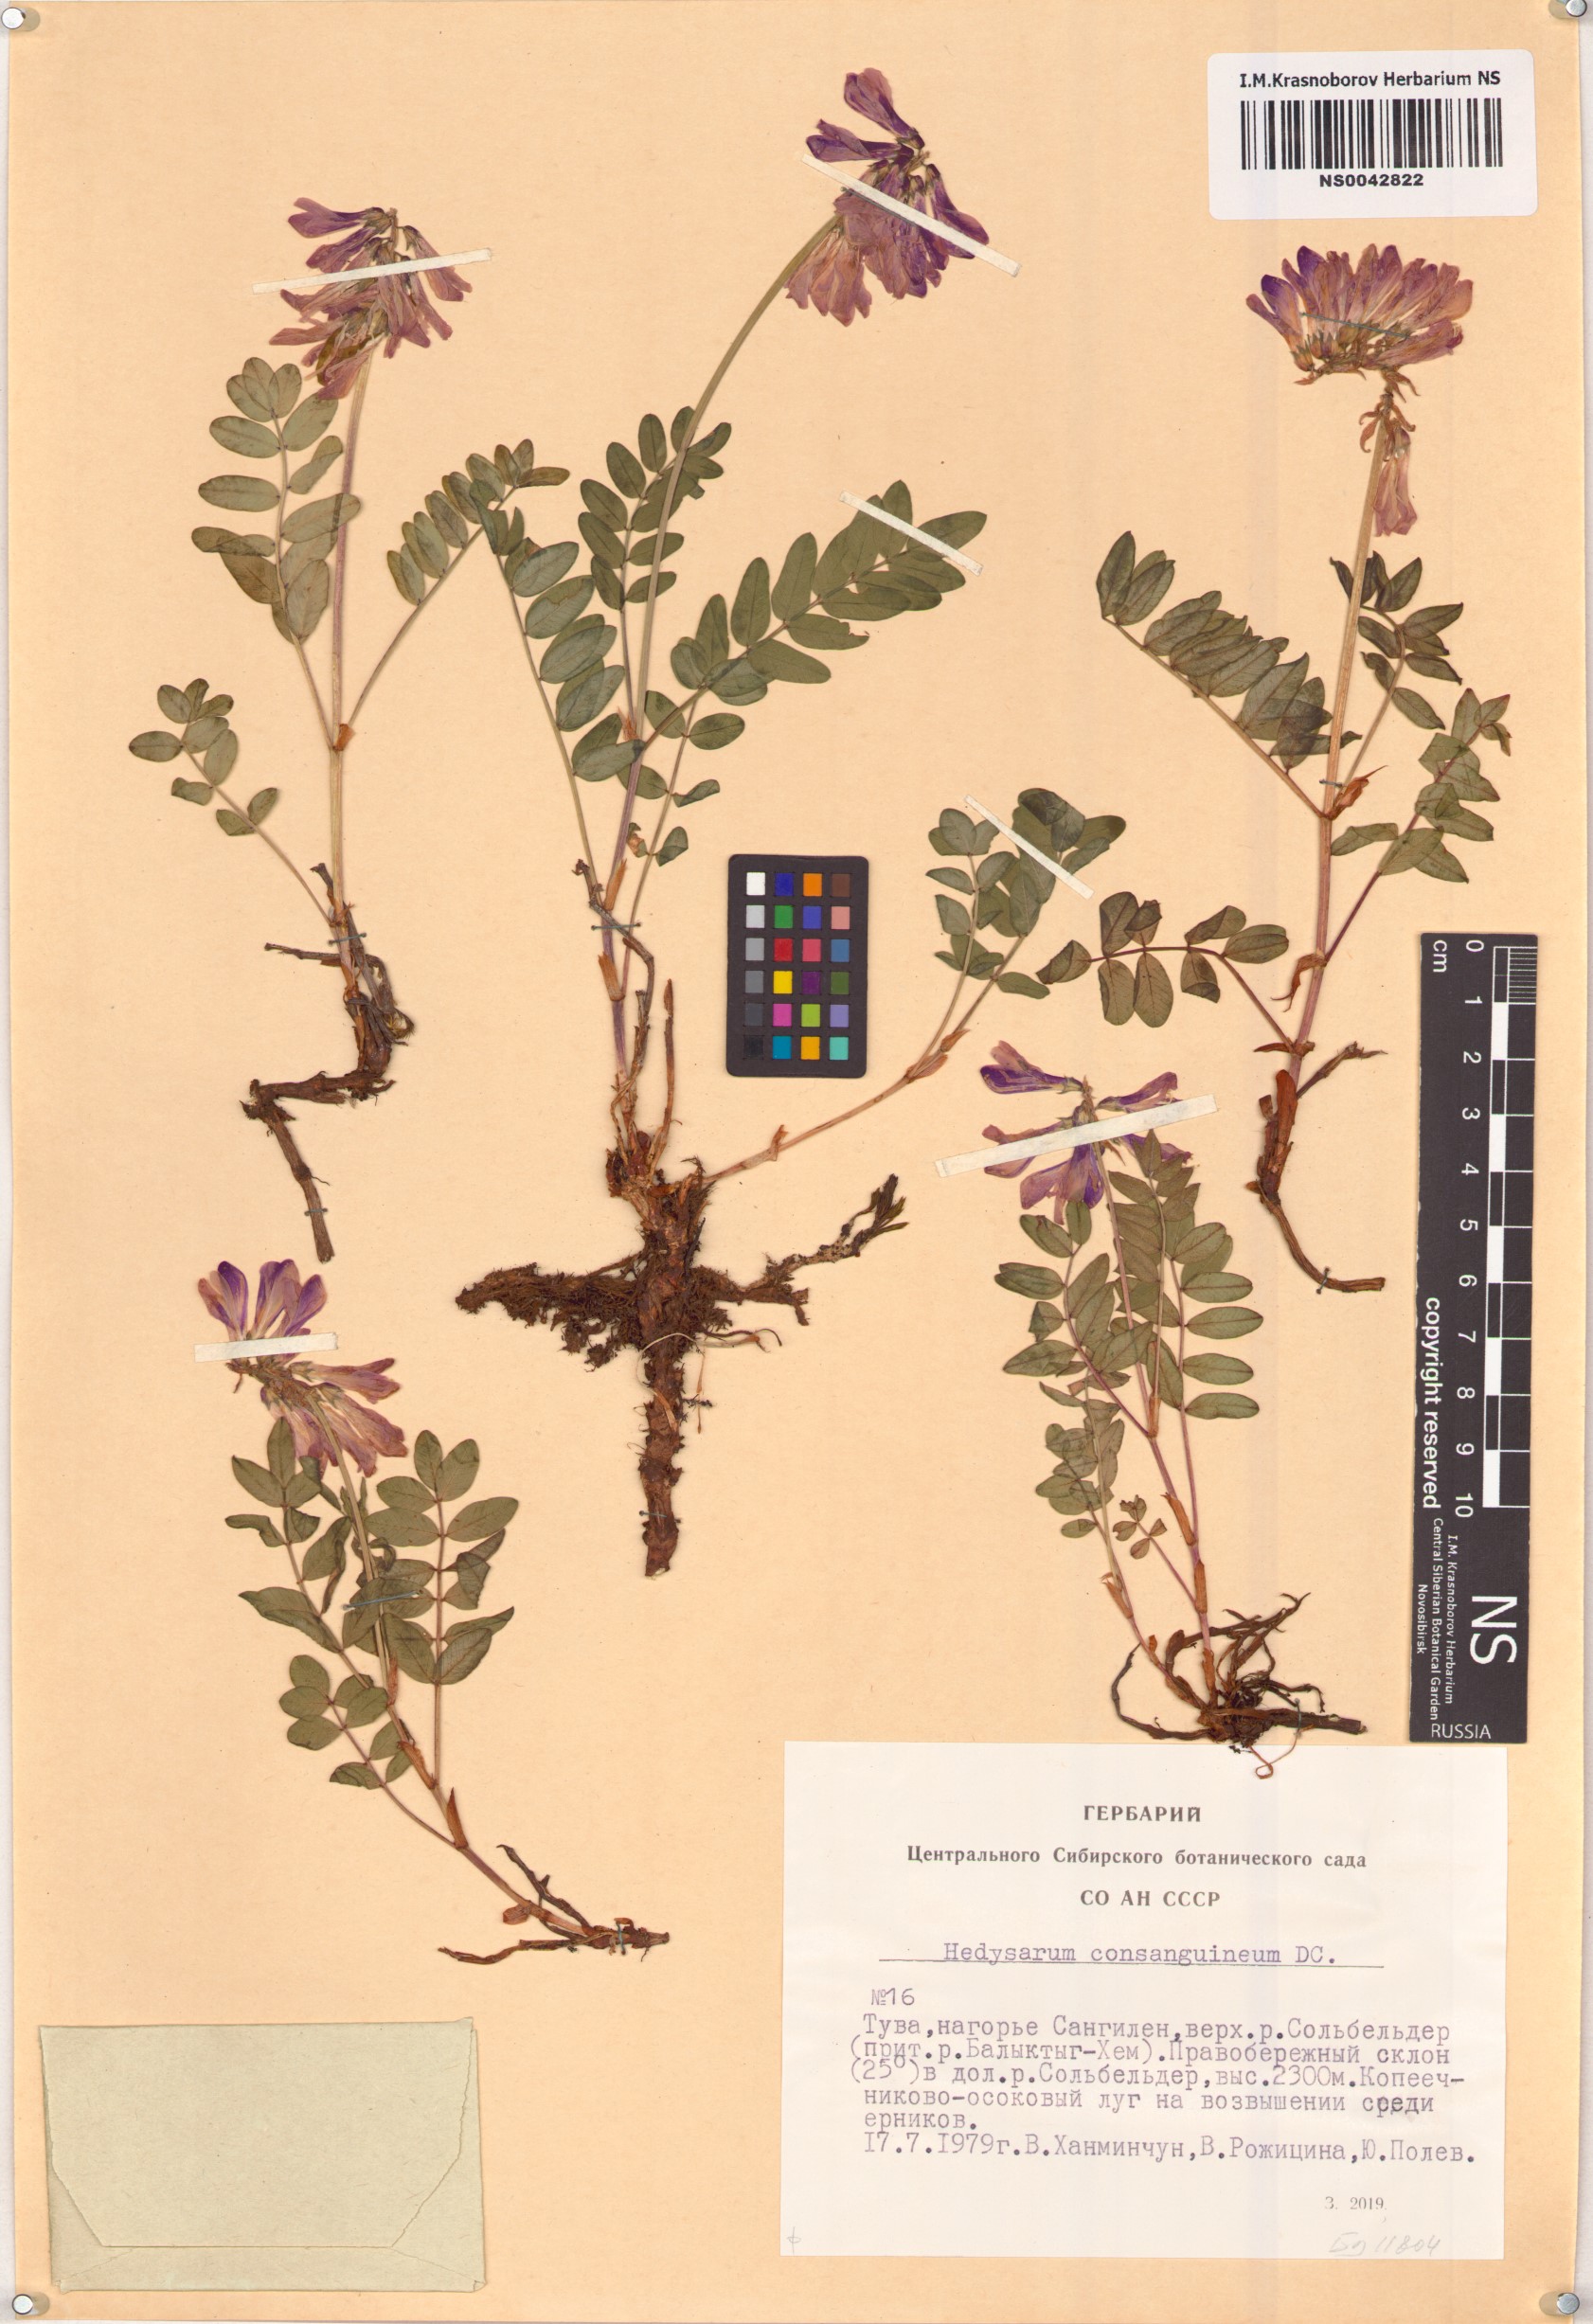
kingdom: Plantae
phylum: Tracheophyta
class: Magnoliopsida
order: Fabales
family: Fabaceae
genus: Hedysarum
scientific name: Hedysarum consanguineum
